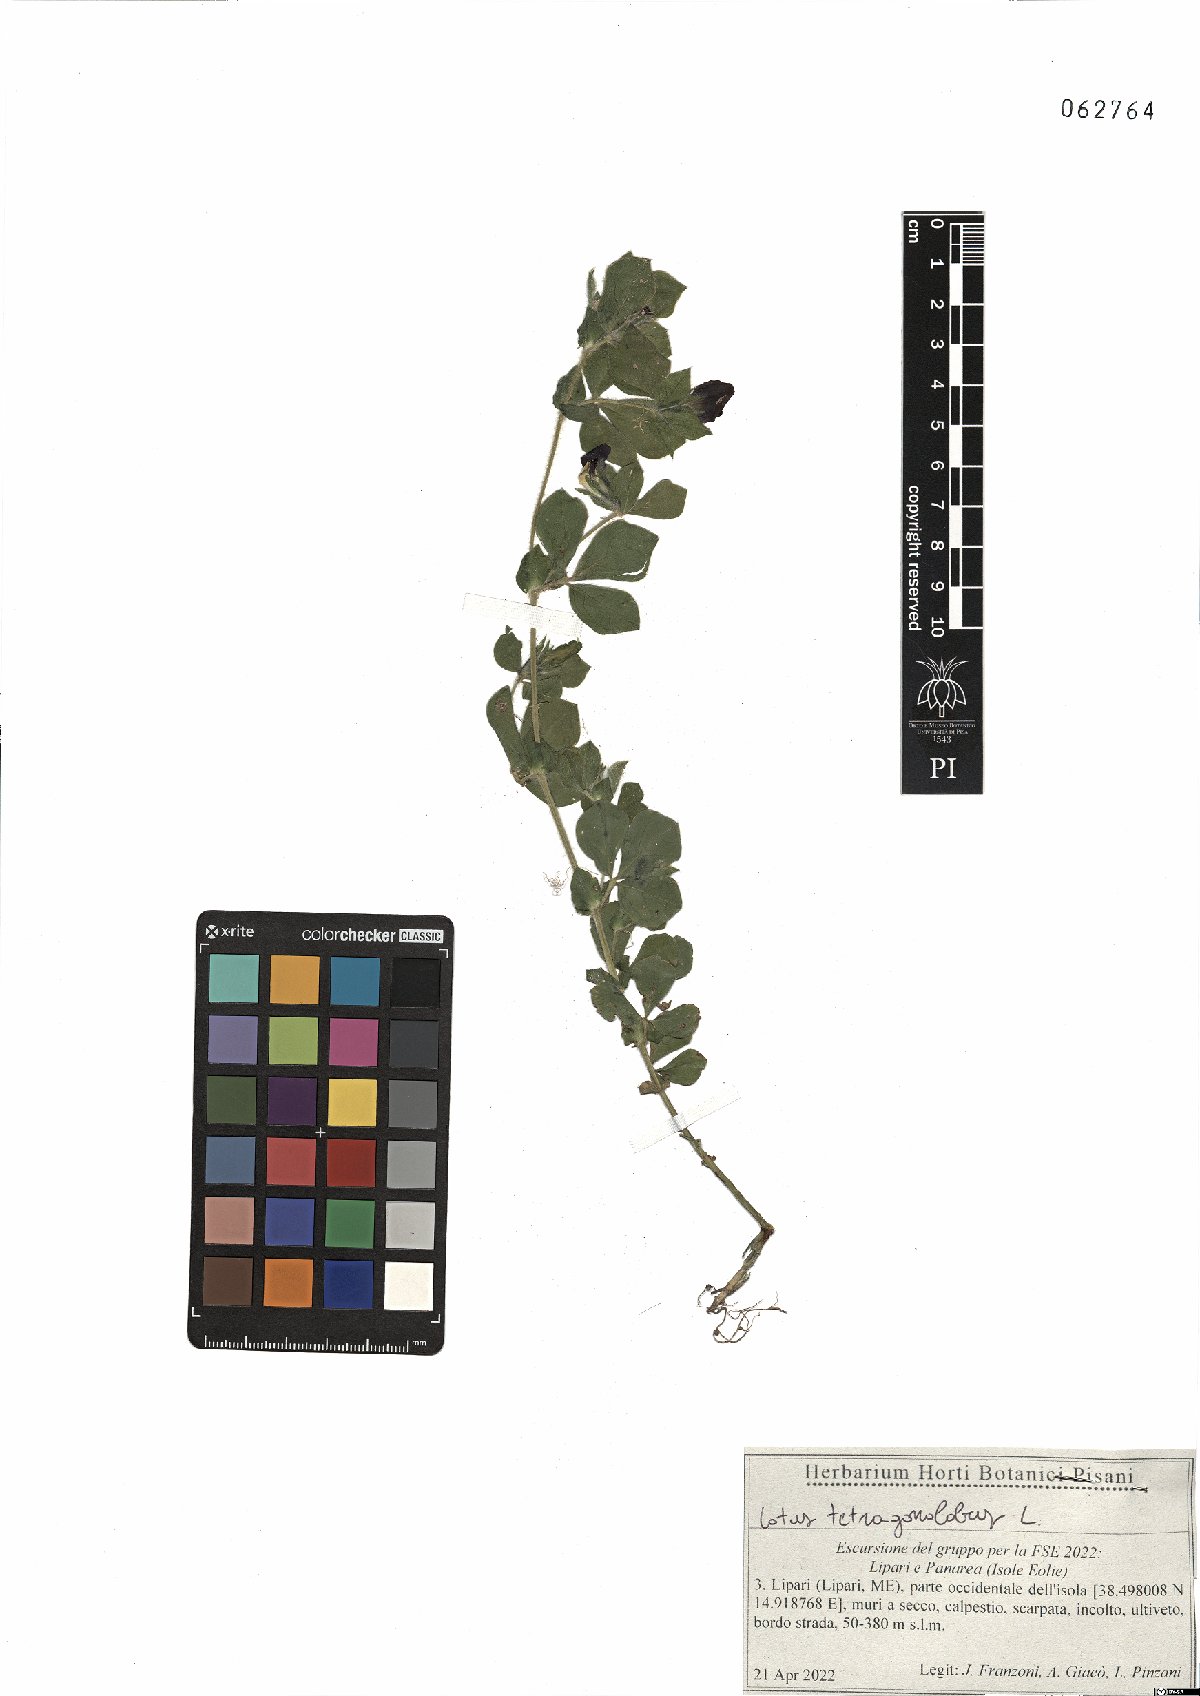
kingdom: Plantae
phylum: Tracheophyta
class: Magnoliopsida
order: Fabales
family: Fabaceae
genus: Lotus
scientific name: Lotus tetragonolobus
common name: Asparagus-pea
